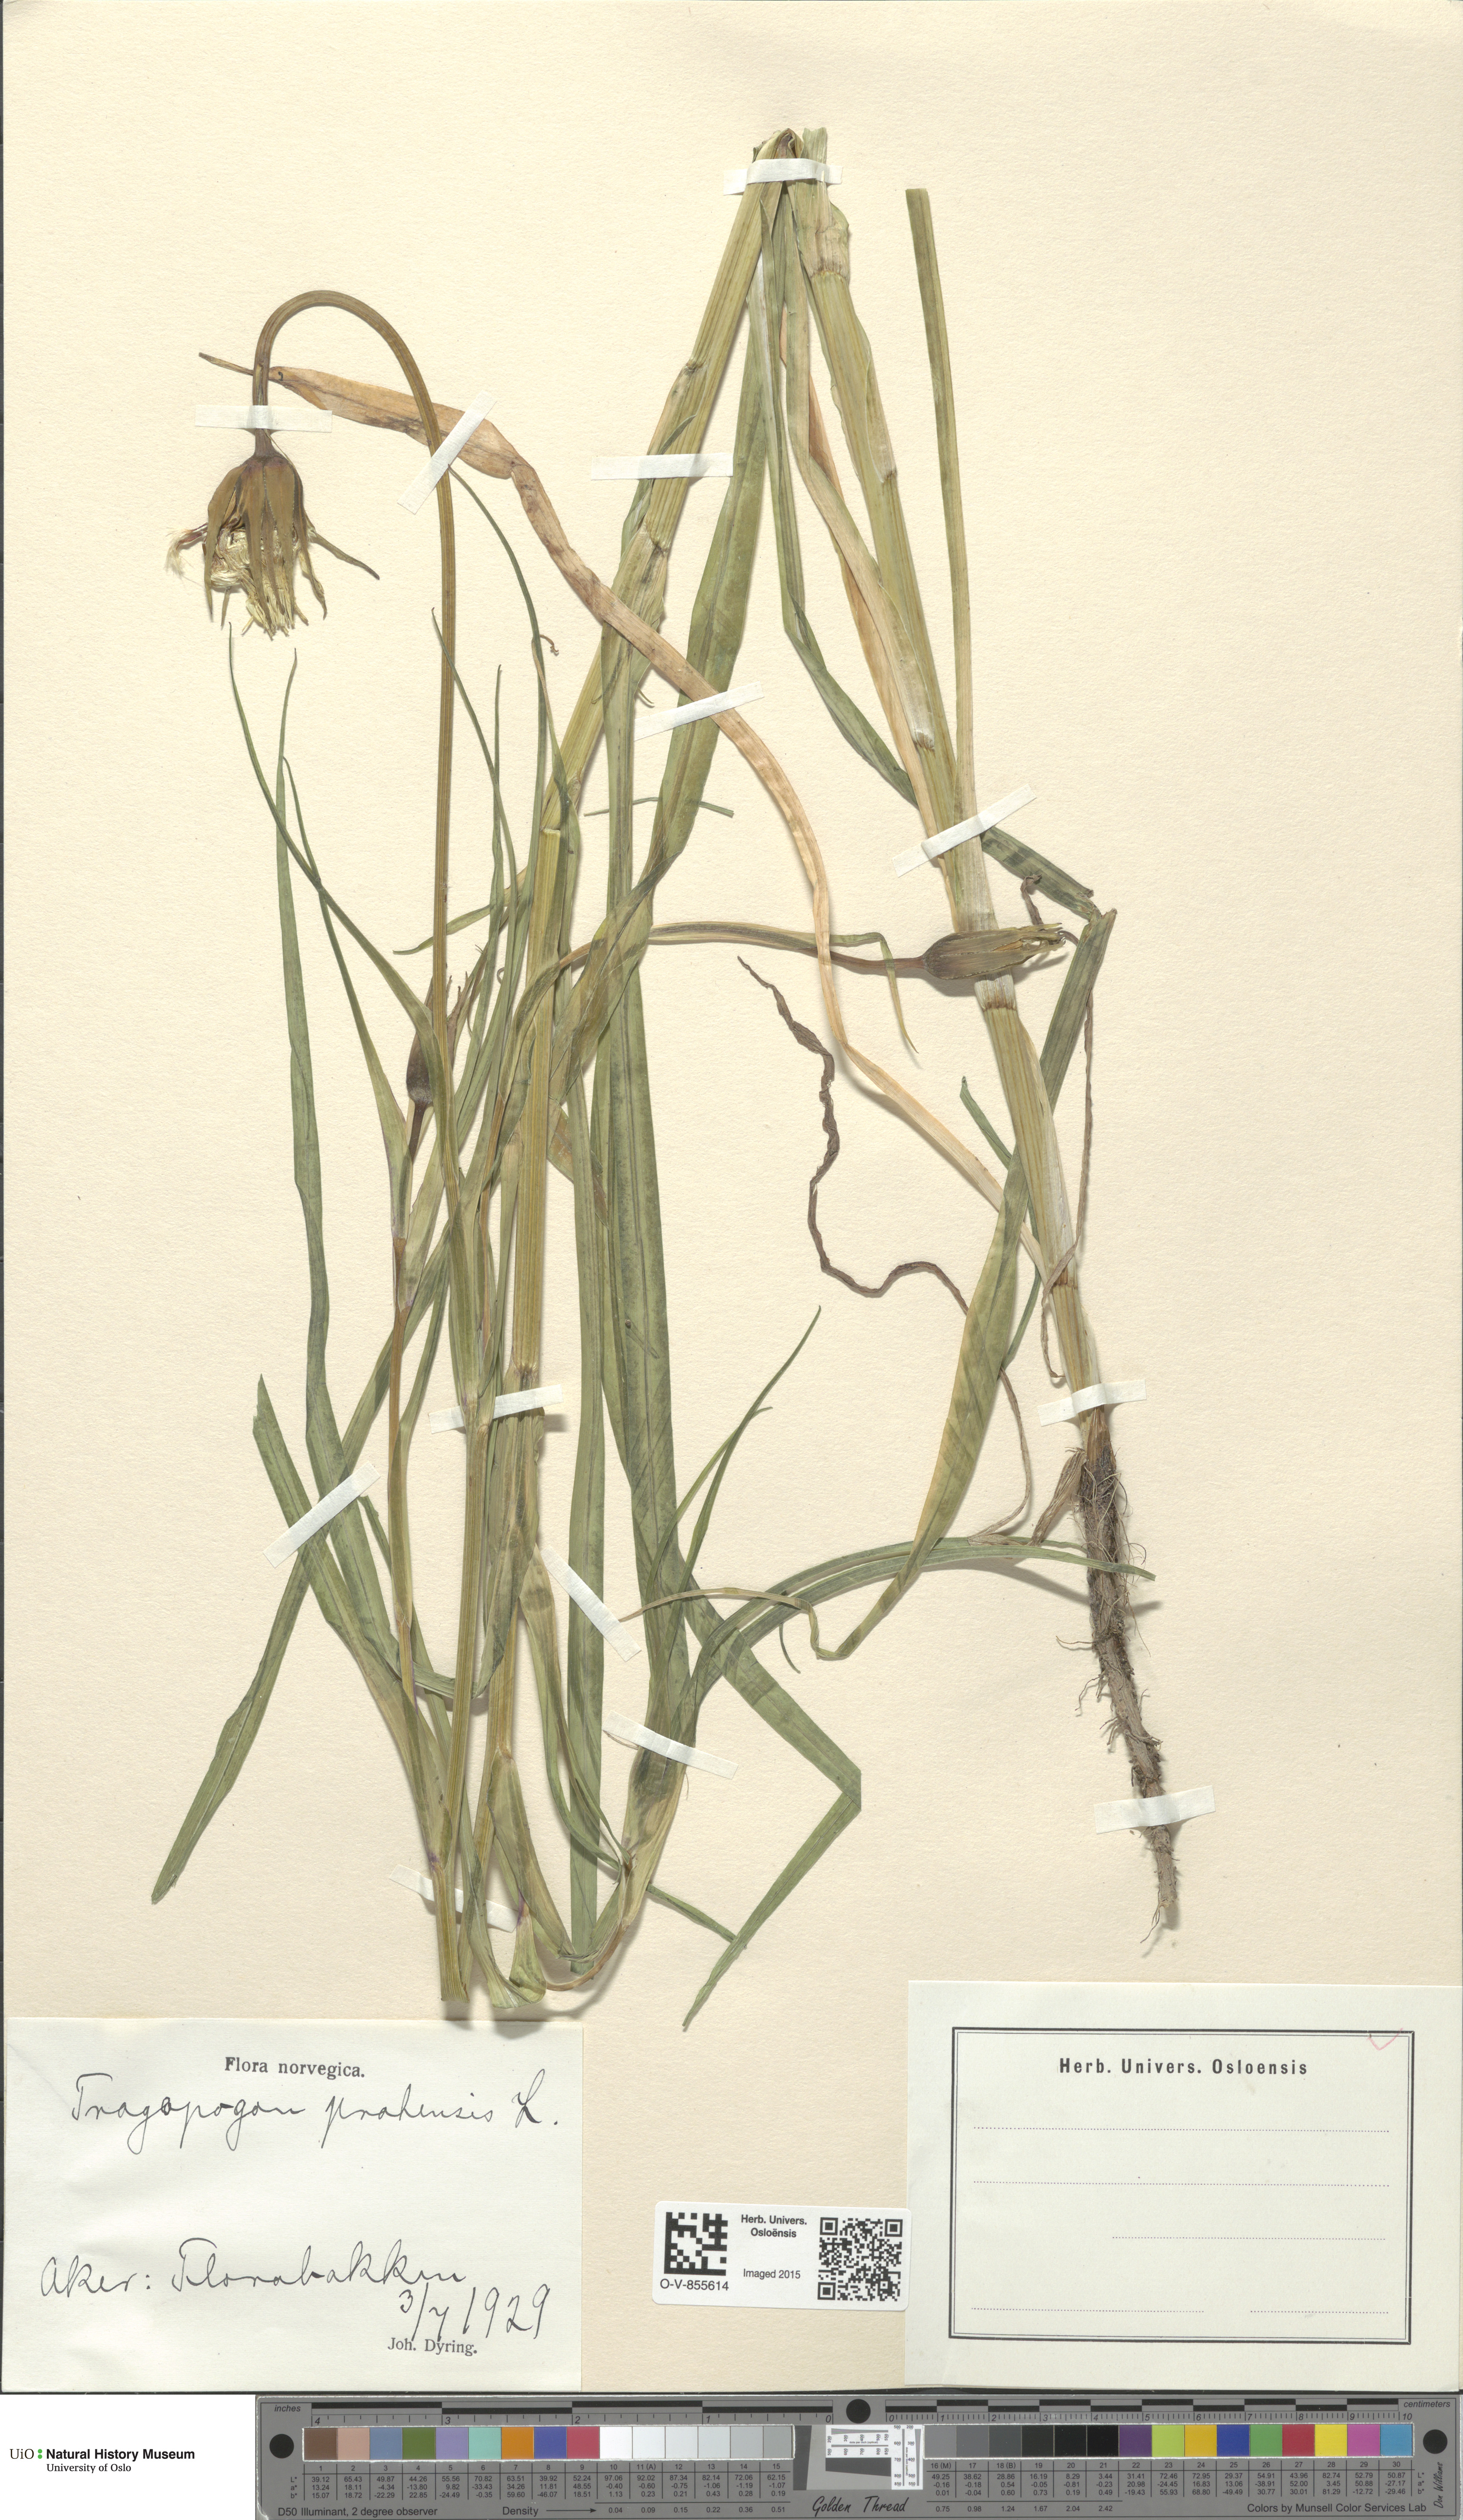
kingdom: Plantae
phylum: Tracheophyta
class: Magnoliopsida
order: Asterales
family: Asteraceae
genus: Tragopogon
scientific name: Tragopogon pratensis
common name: Goat's-beard
